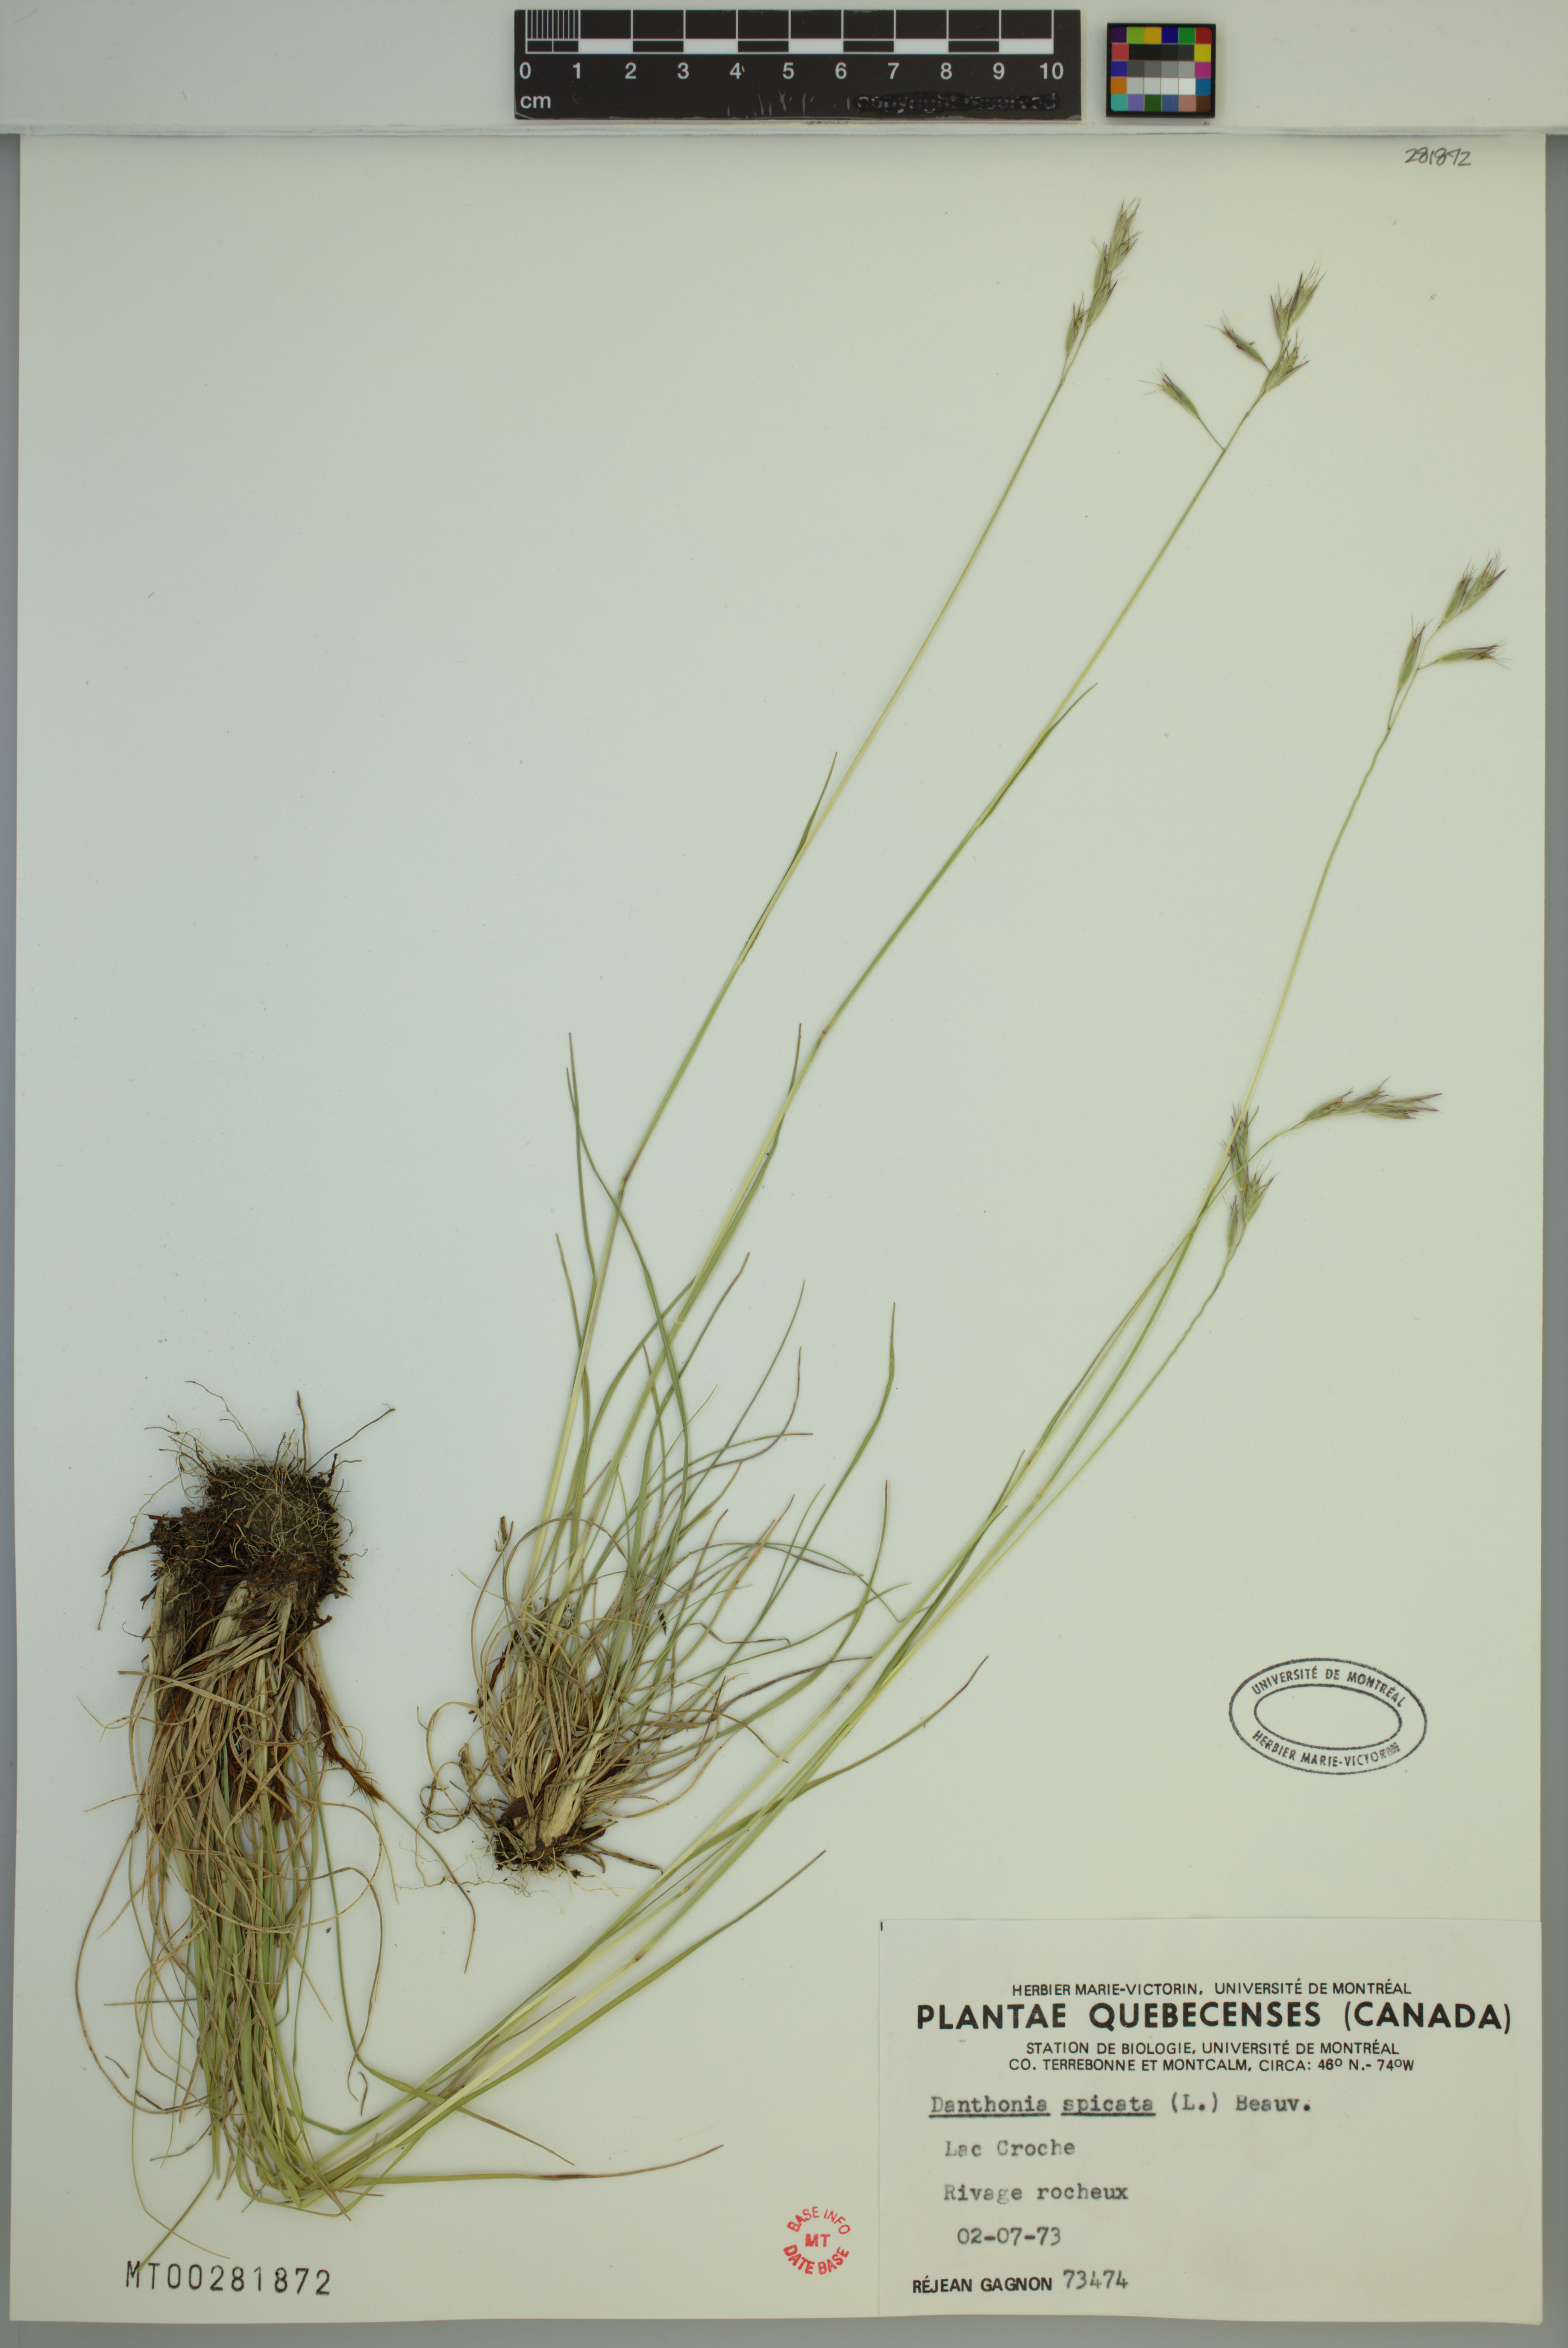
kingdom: Plantae
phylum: Tracheophyta
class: Liliopsida
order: Poales
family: Poaceae
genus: Danthonia
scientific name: Danthonia spicata
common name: Common wild oatgrass
